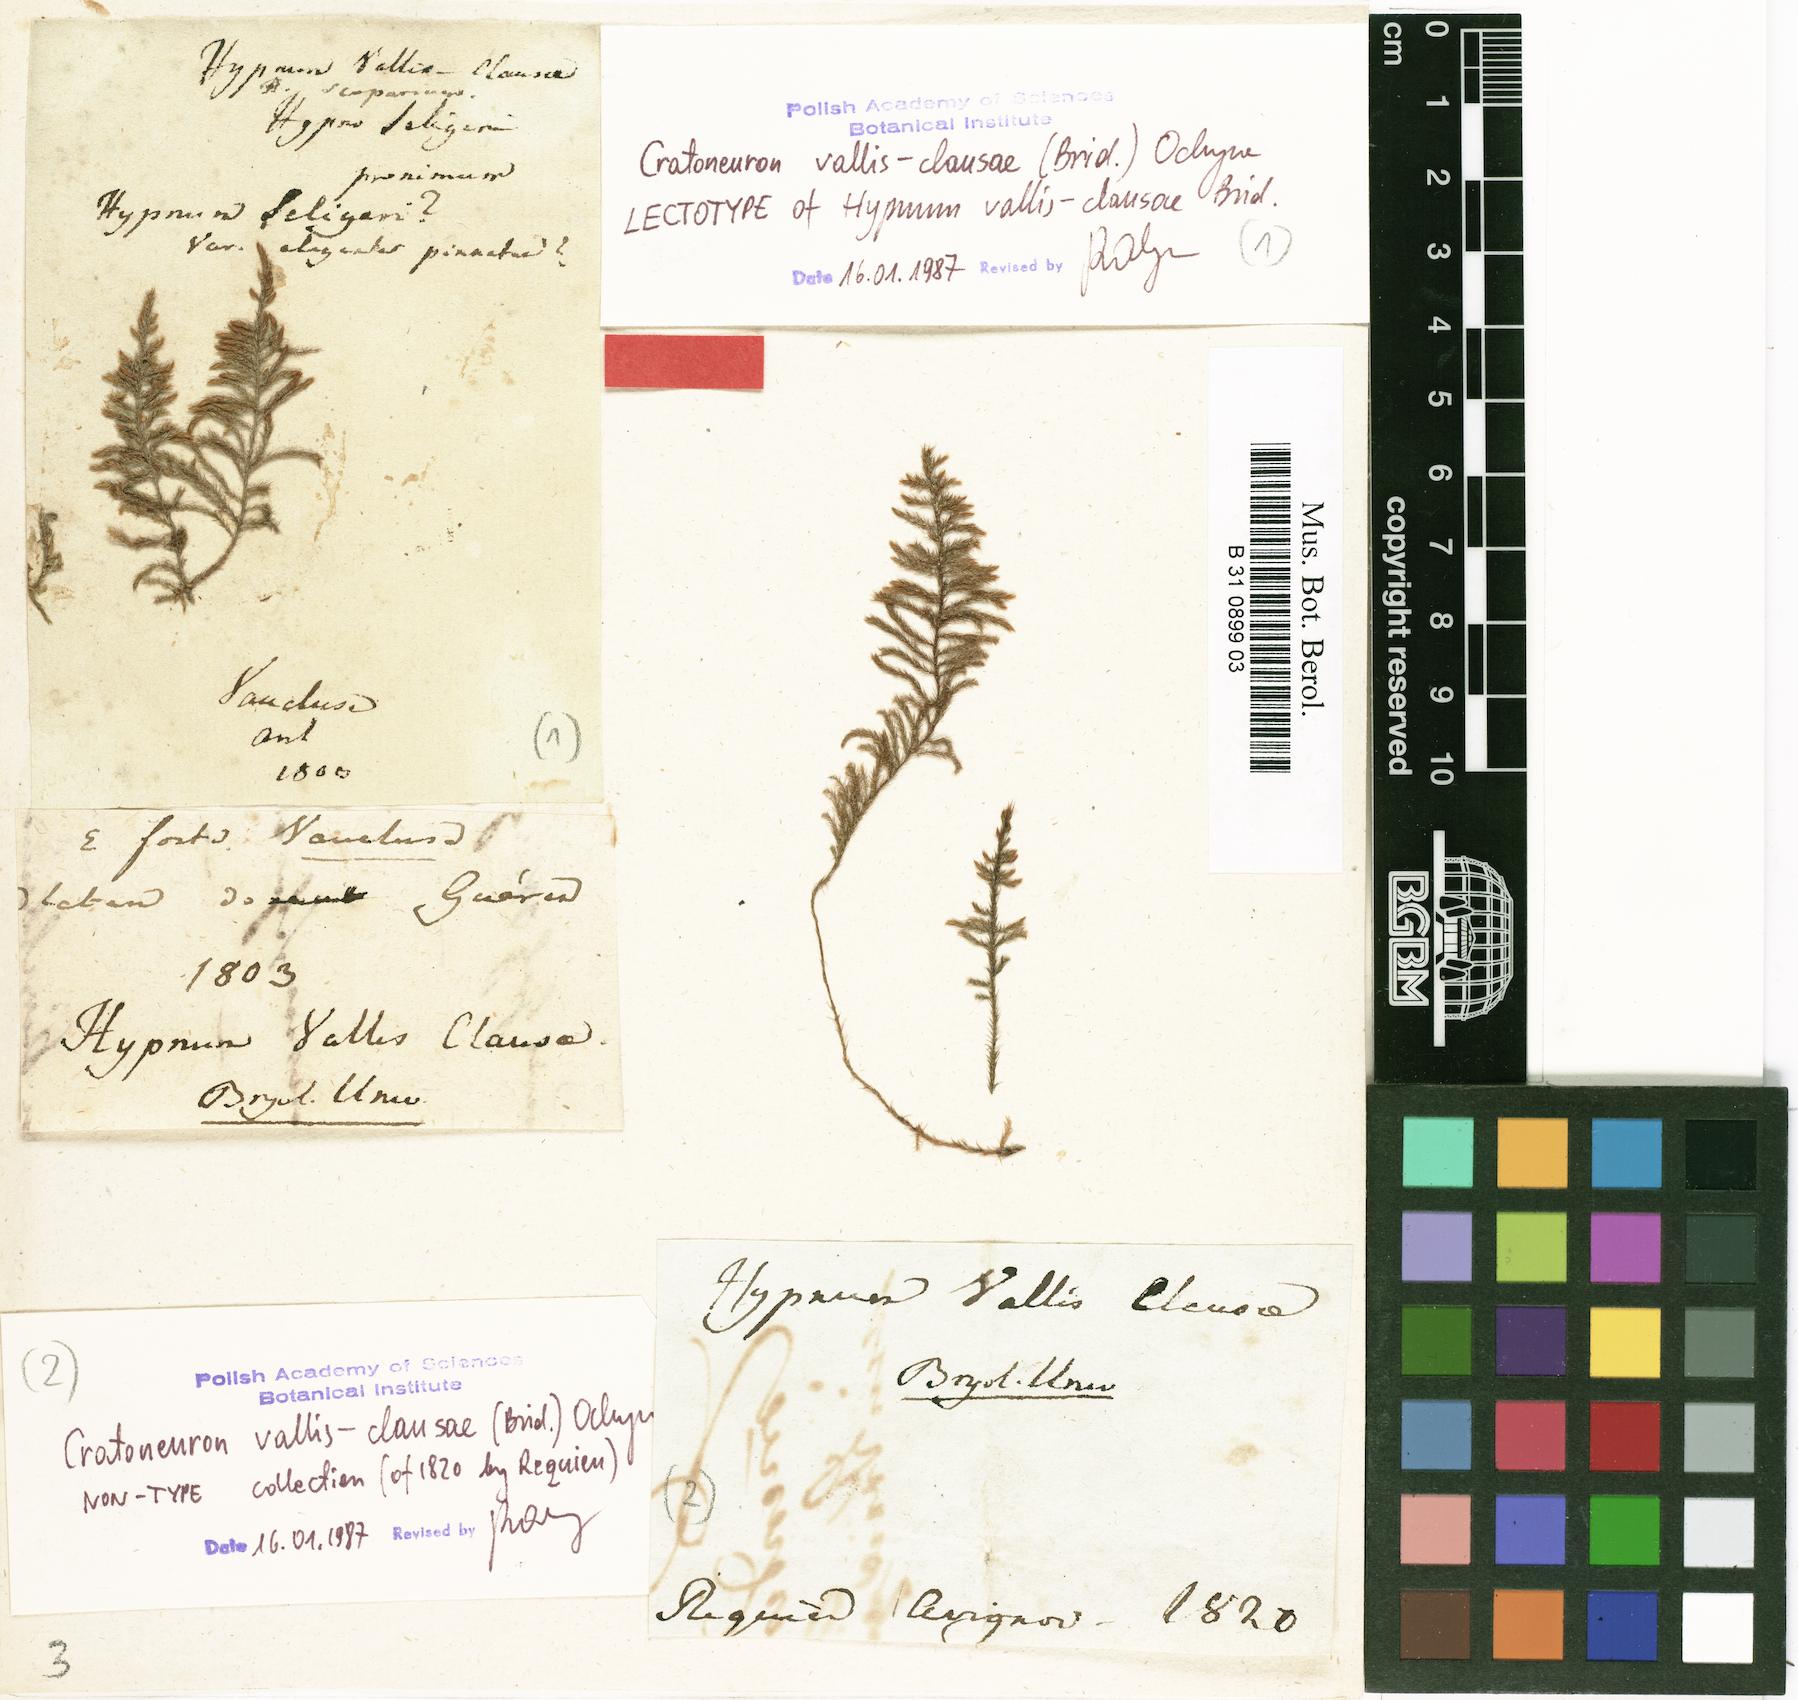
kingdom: Plantae
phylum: Bryophyta
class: Bryopsida
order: Hypnales
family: Amblystegiaceae
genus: Cratoneuron
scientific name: Cratoneuron filicinum
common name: Fern-leaved hook moss
